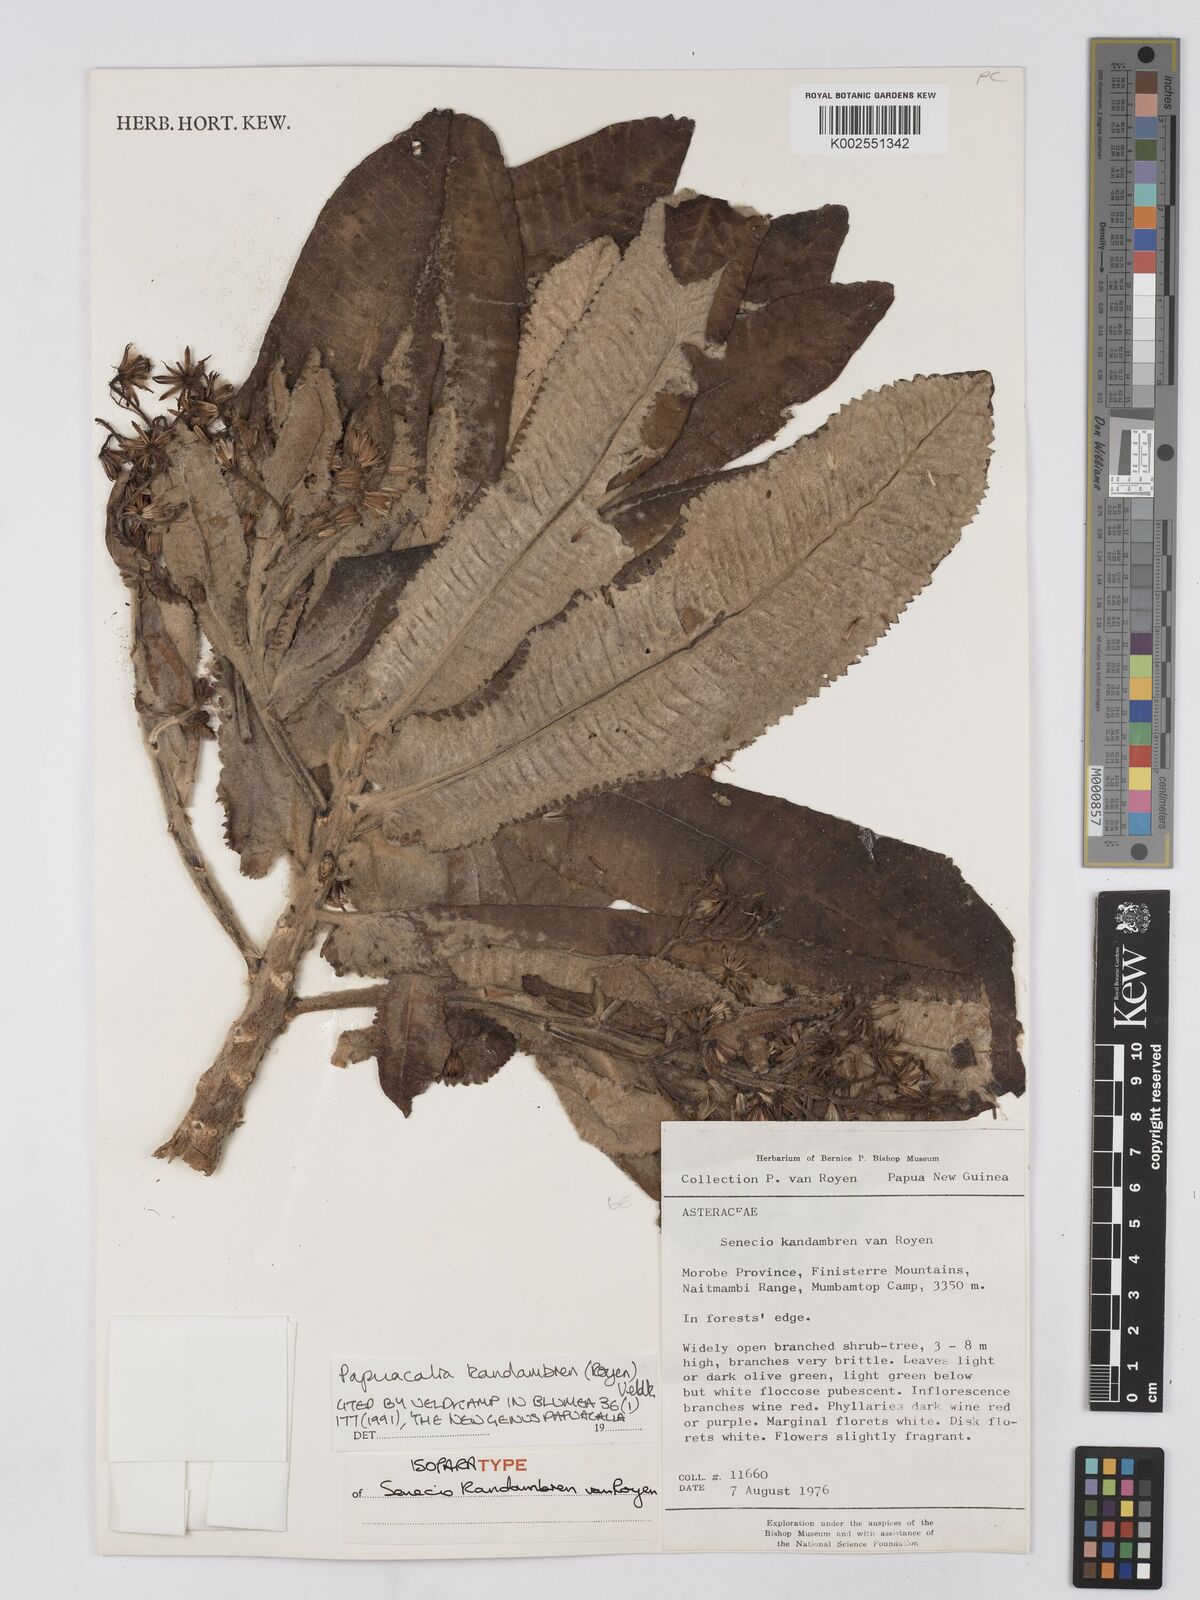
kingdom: Plantae
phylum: Tracheophyta
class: Magnoliopsida
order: Asterales
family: Asteraceae
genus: Papuacalia
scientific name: Papuacalia kandambren
